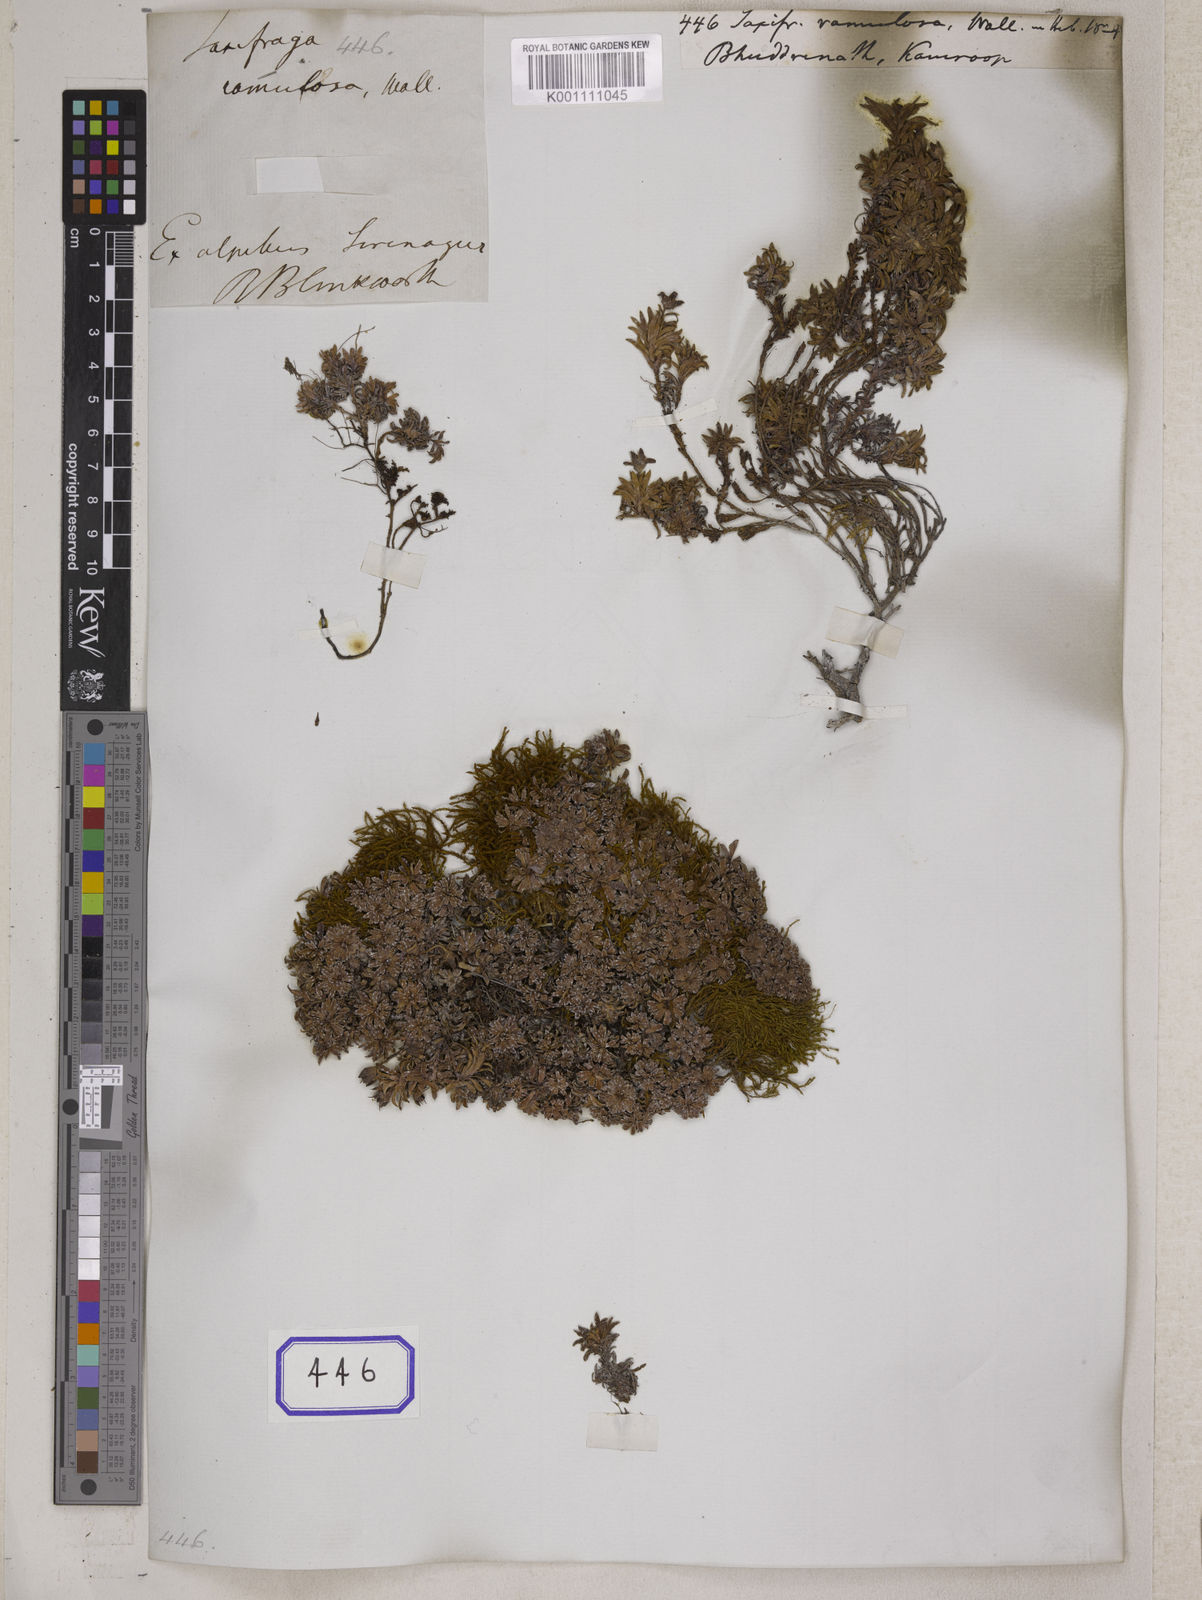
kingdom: Plantae
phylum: Tracheophyta
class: Magnoliopsida
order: Saxifragales
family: Saxifragaceae
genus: Saxifraga
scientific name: Saxifraga
